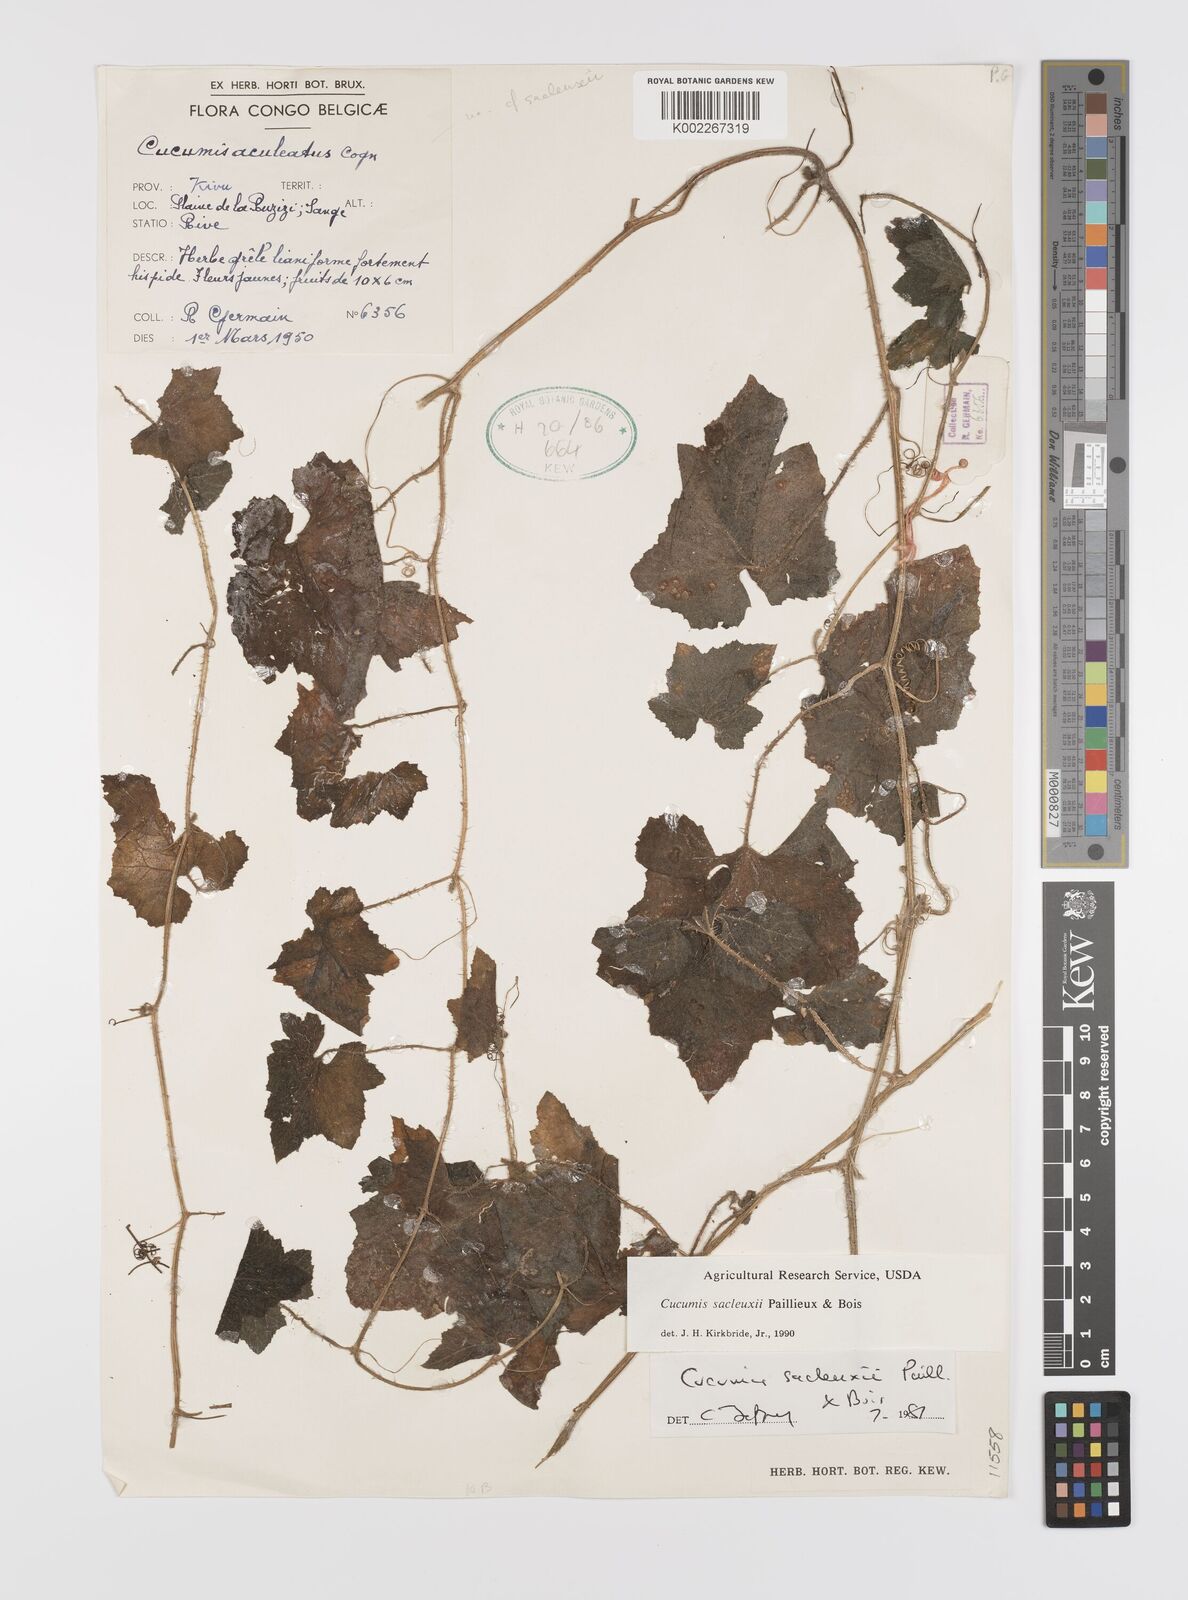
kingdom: Plantae
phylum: Tracheophyta
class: Magnoliopsida
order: Cucurbitales
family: Cucurbitaceae
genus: Cucumis
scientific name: Cucumis sacleuxii
